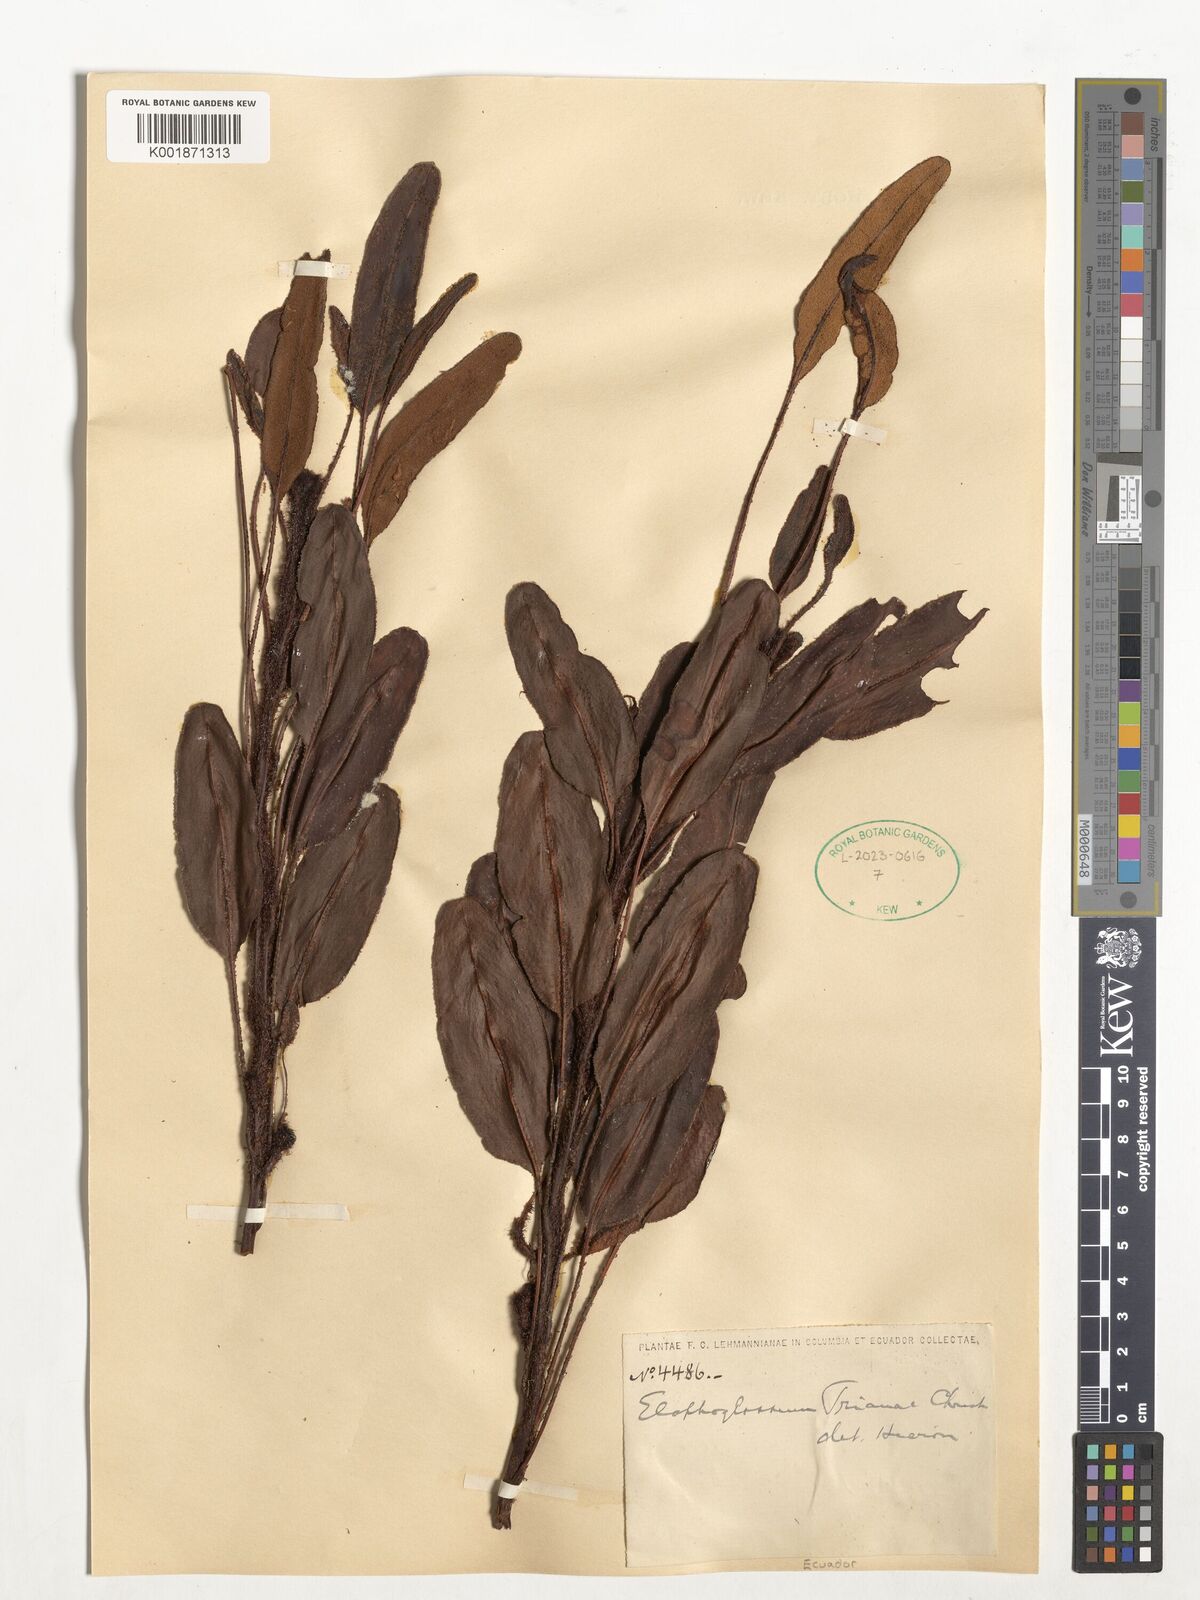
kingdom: Plantae
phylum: Tracheophyta
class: Polypodiopsida
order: Polypodiales
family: Dryopteridaceae
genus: Elaphoglossum
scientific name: Elaphoglossum trianae
